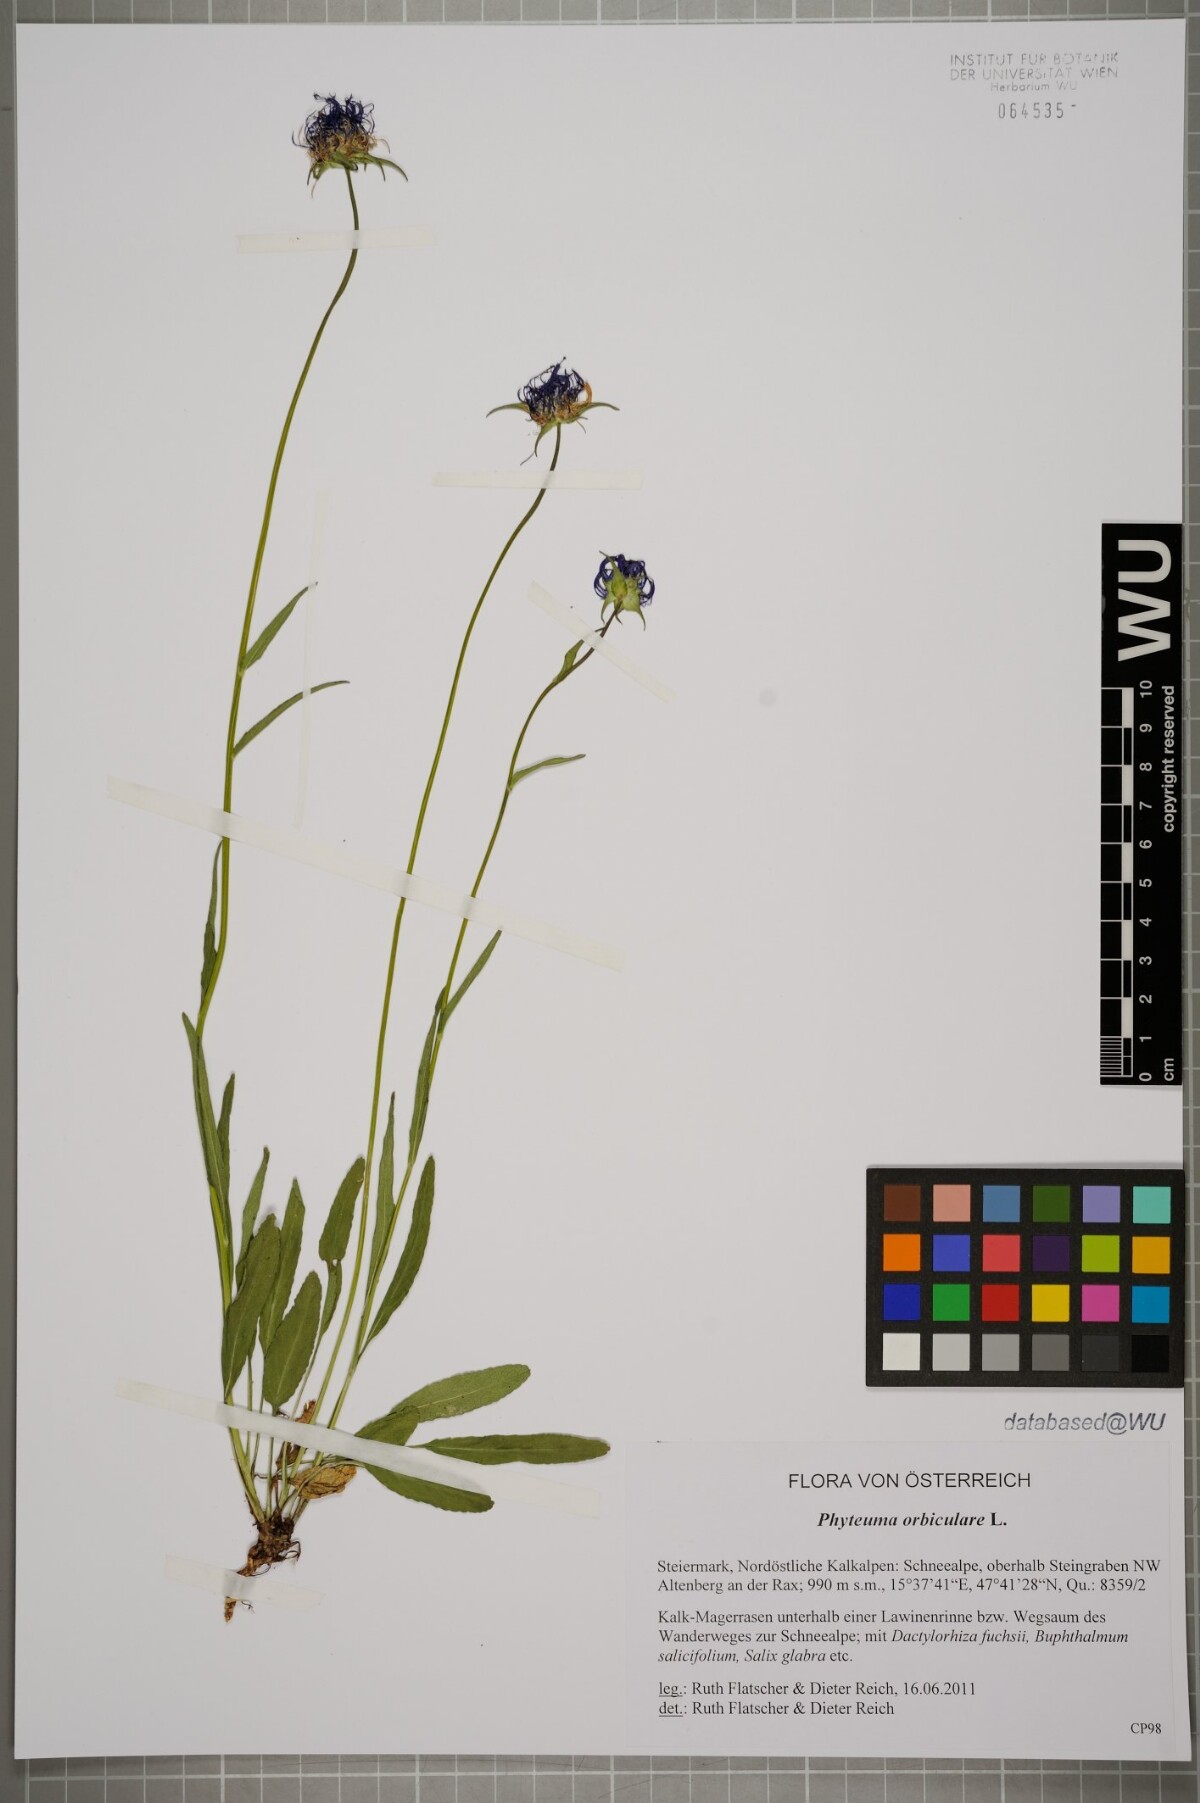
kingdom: Plantae
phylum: Tracheophyta
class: Magnoliopsida
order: Asterales
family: Campanulaceae
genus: Phyteuma
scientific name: Phyteuma orbiculare
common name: Round-headed rampion
